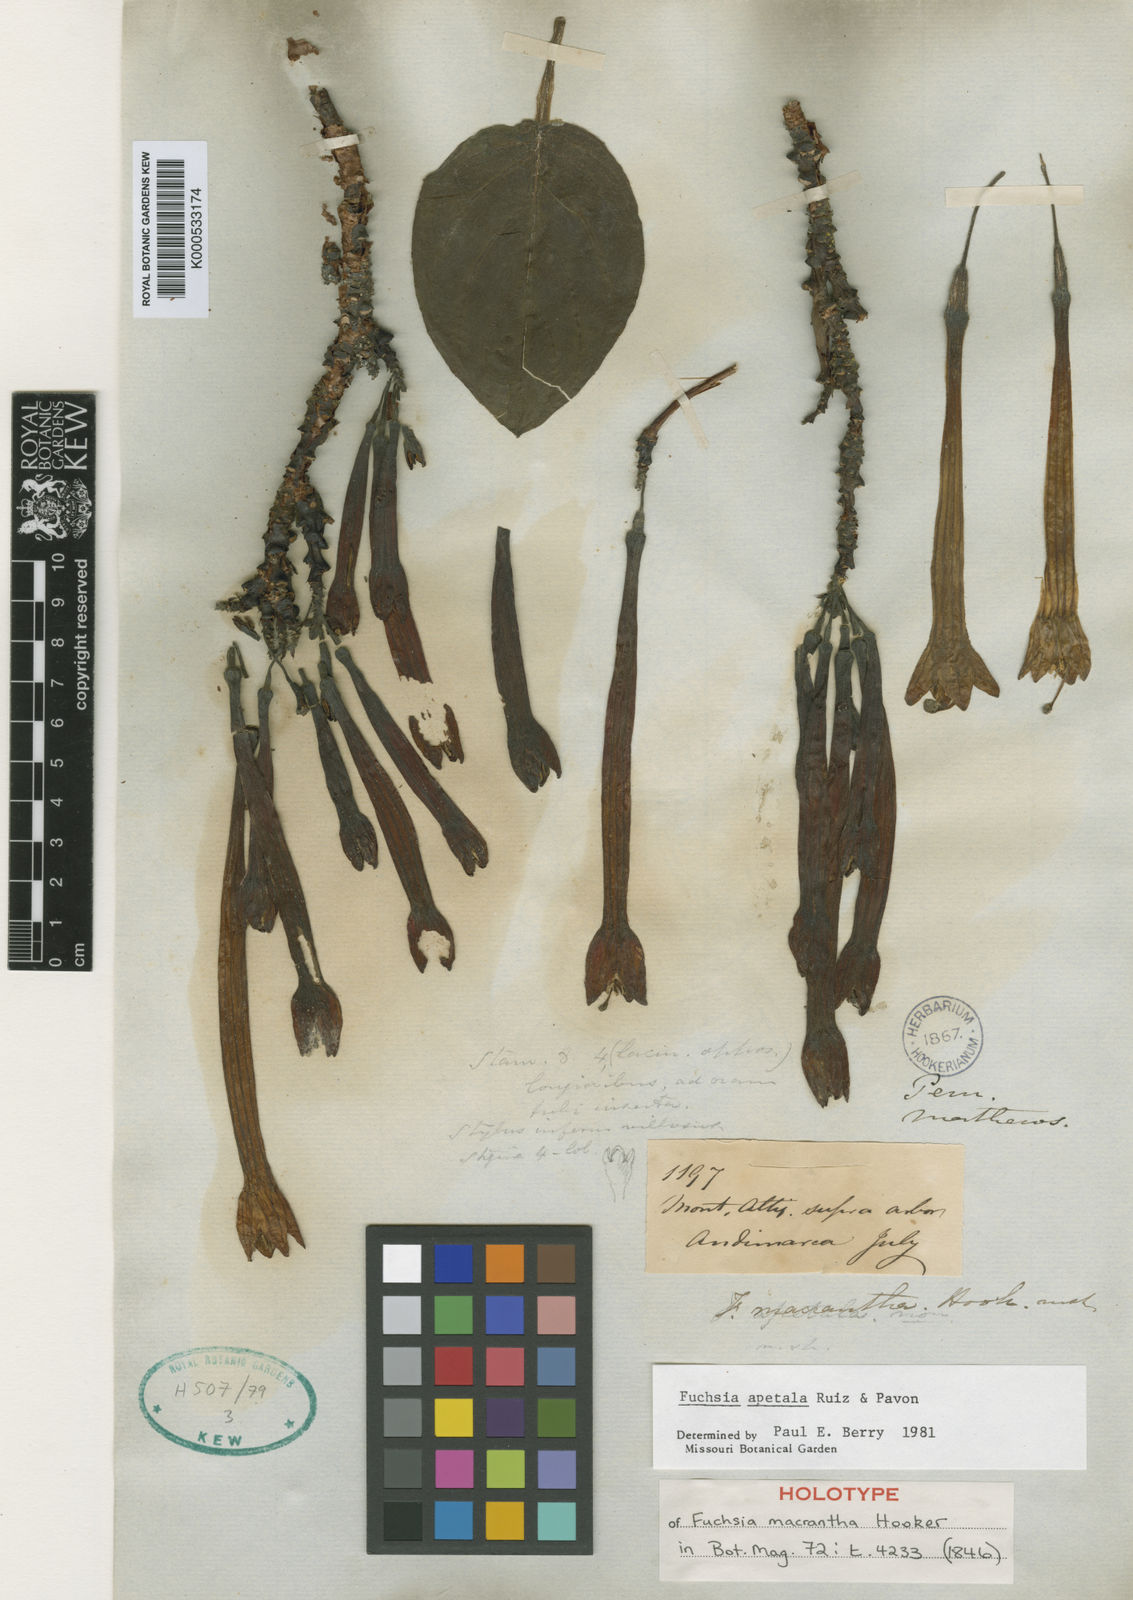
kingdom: Plantae
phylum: Tracheophyta
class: Magnoliopsida
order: Myrtales
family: Onagraceae
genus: Fuchsia
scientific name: Fuchsia apetala
